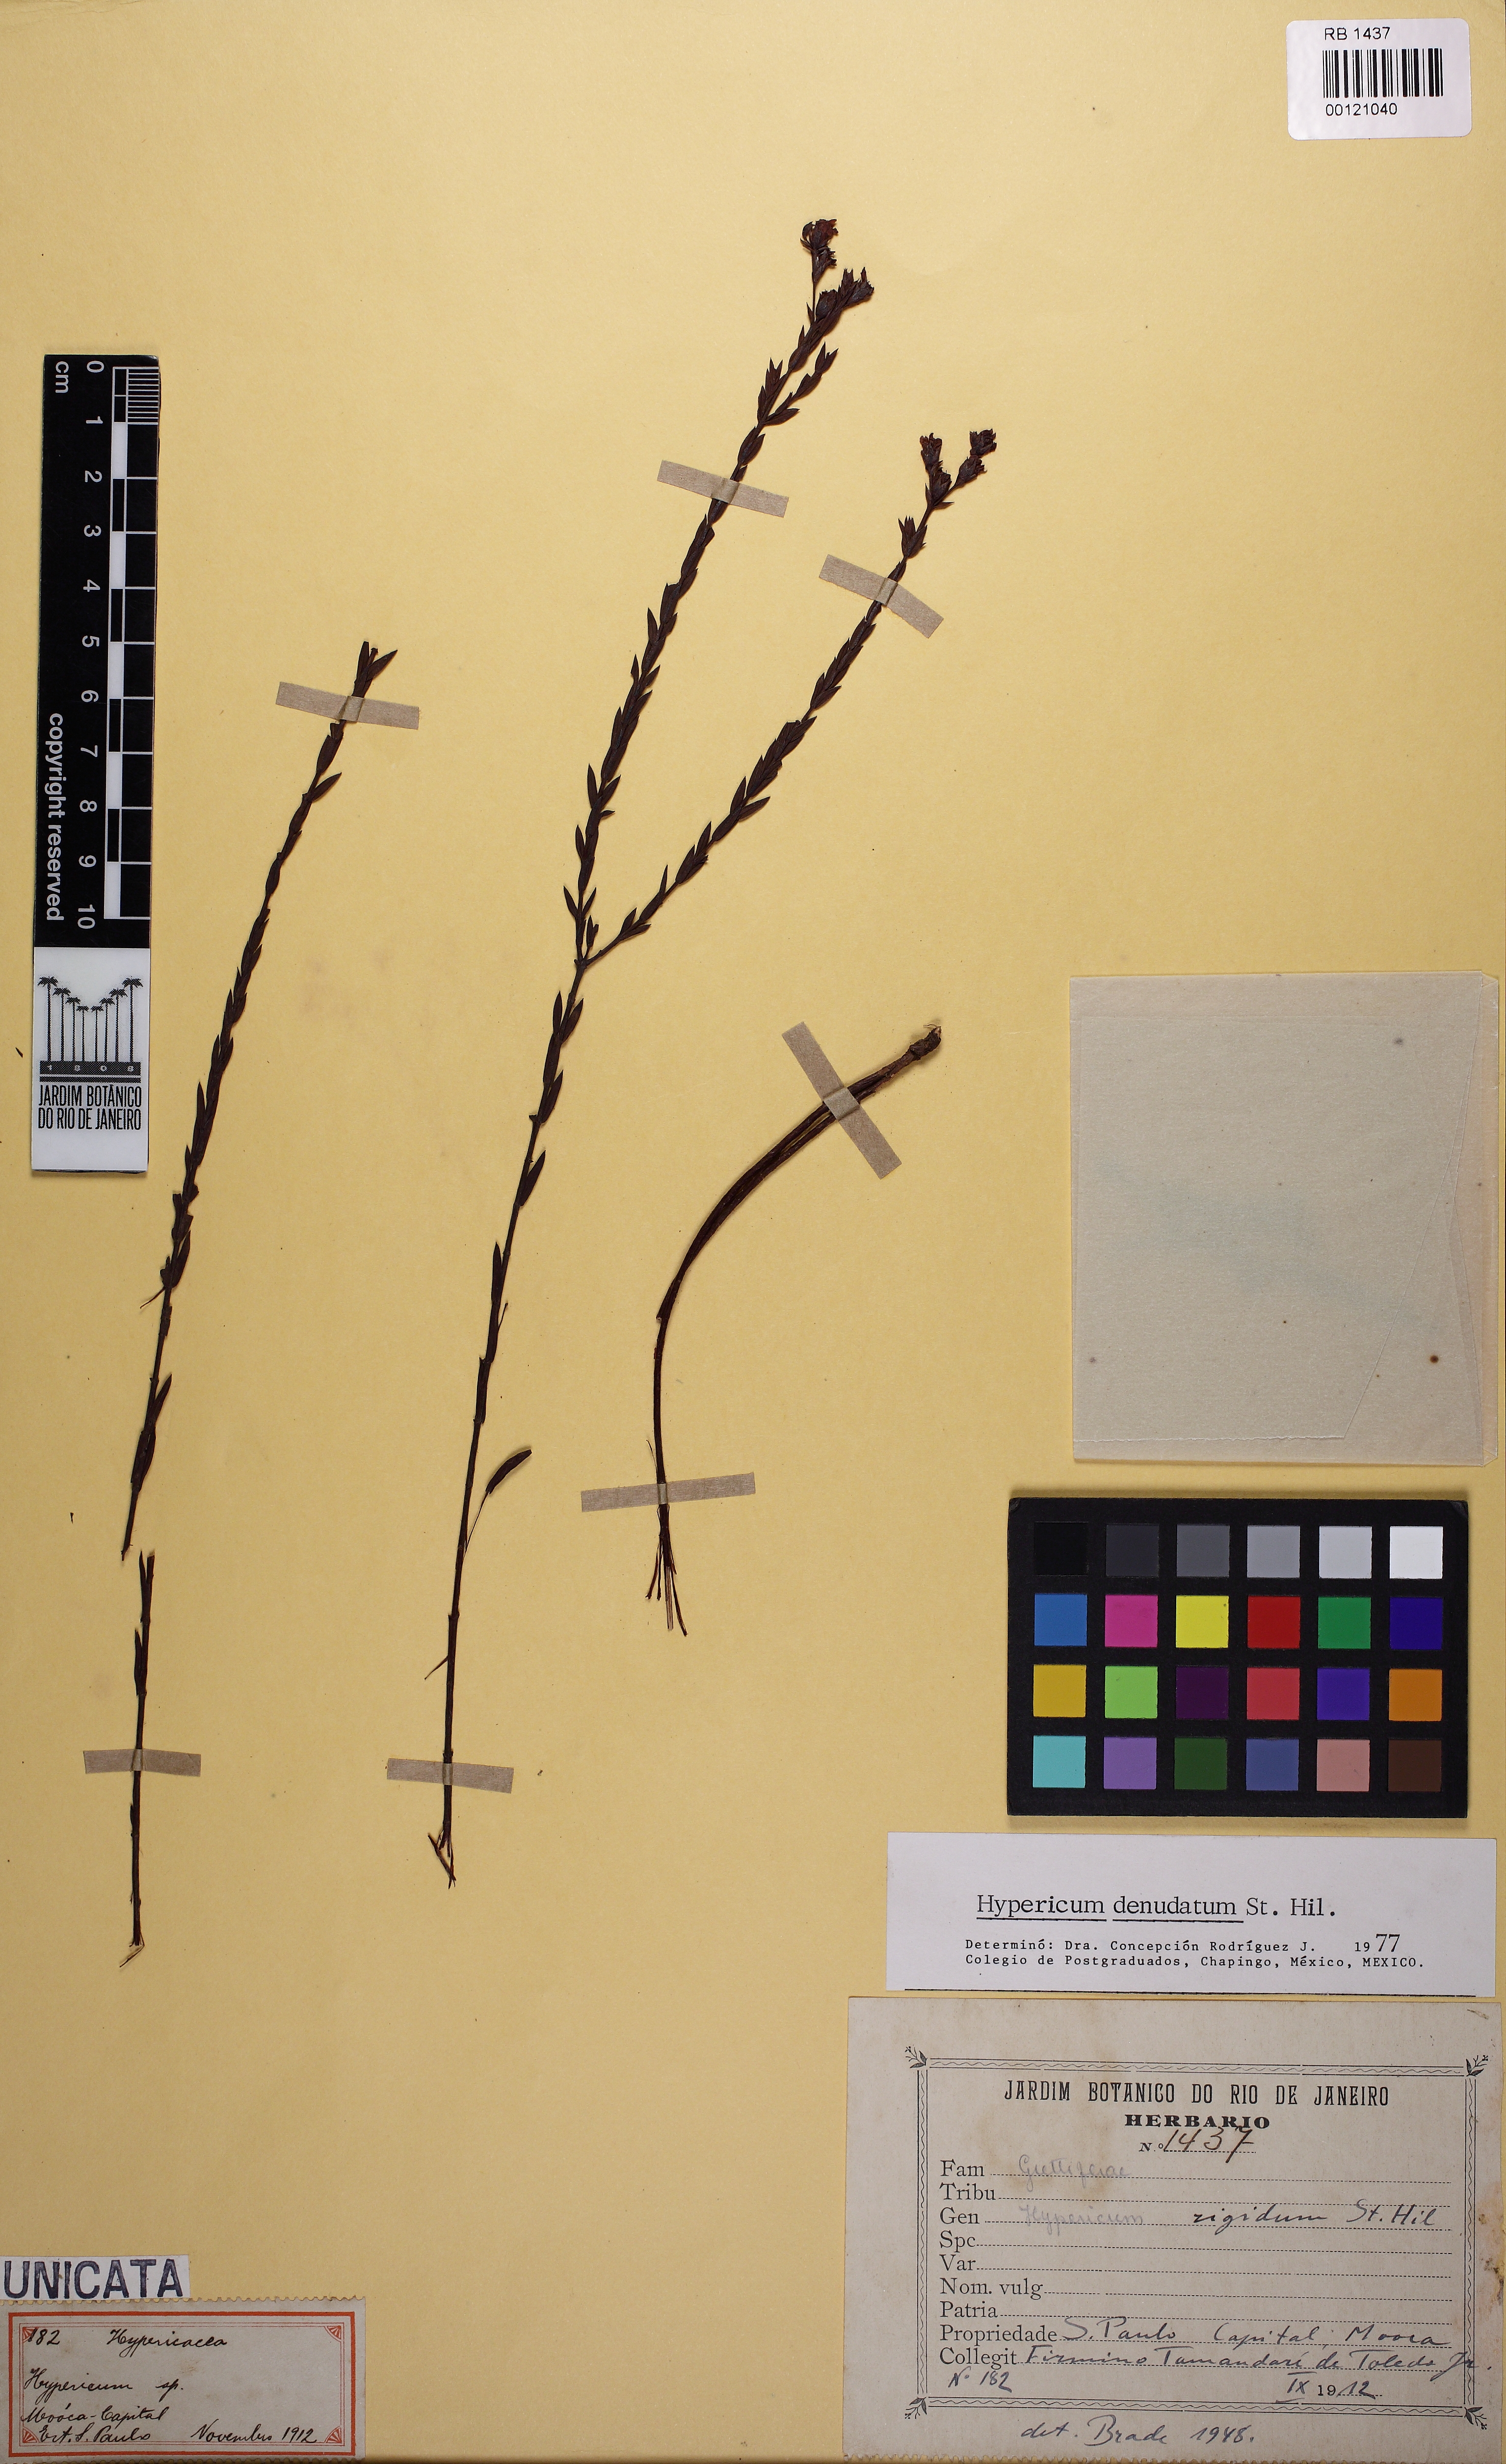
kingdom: Plantae
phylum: Tracheophyta
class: Magnoliopsida
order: Malpighiales
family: Hypericaceae
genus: Hypericum
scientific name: Hypericum denudatum
